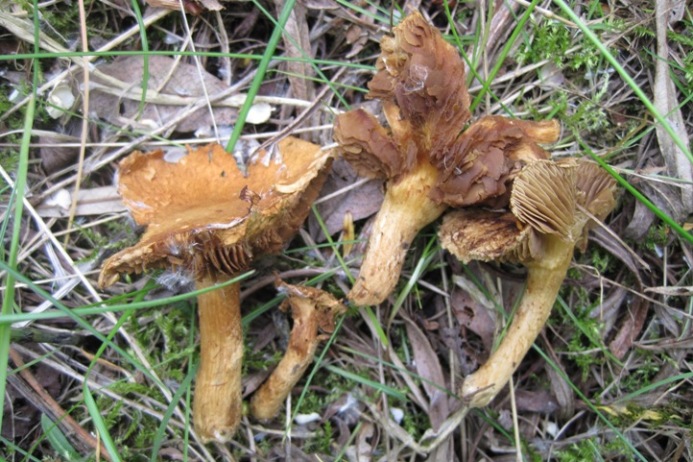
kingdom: Fungi
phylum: Basidiomycota
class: Agaricomycetes
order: Agaricales
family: Inocybaceae
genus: Mallocybe
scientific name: Mallocybe agardhii
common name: Agardhs trævlhat
